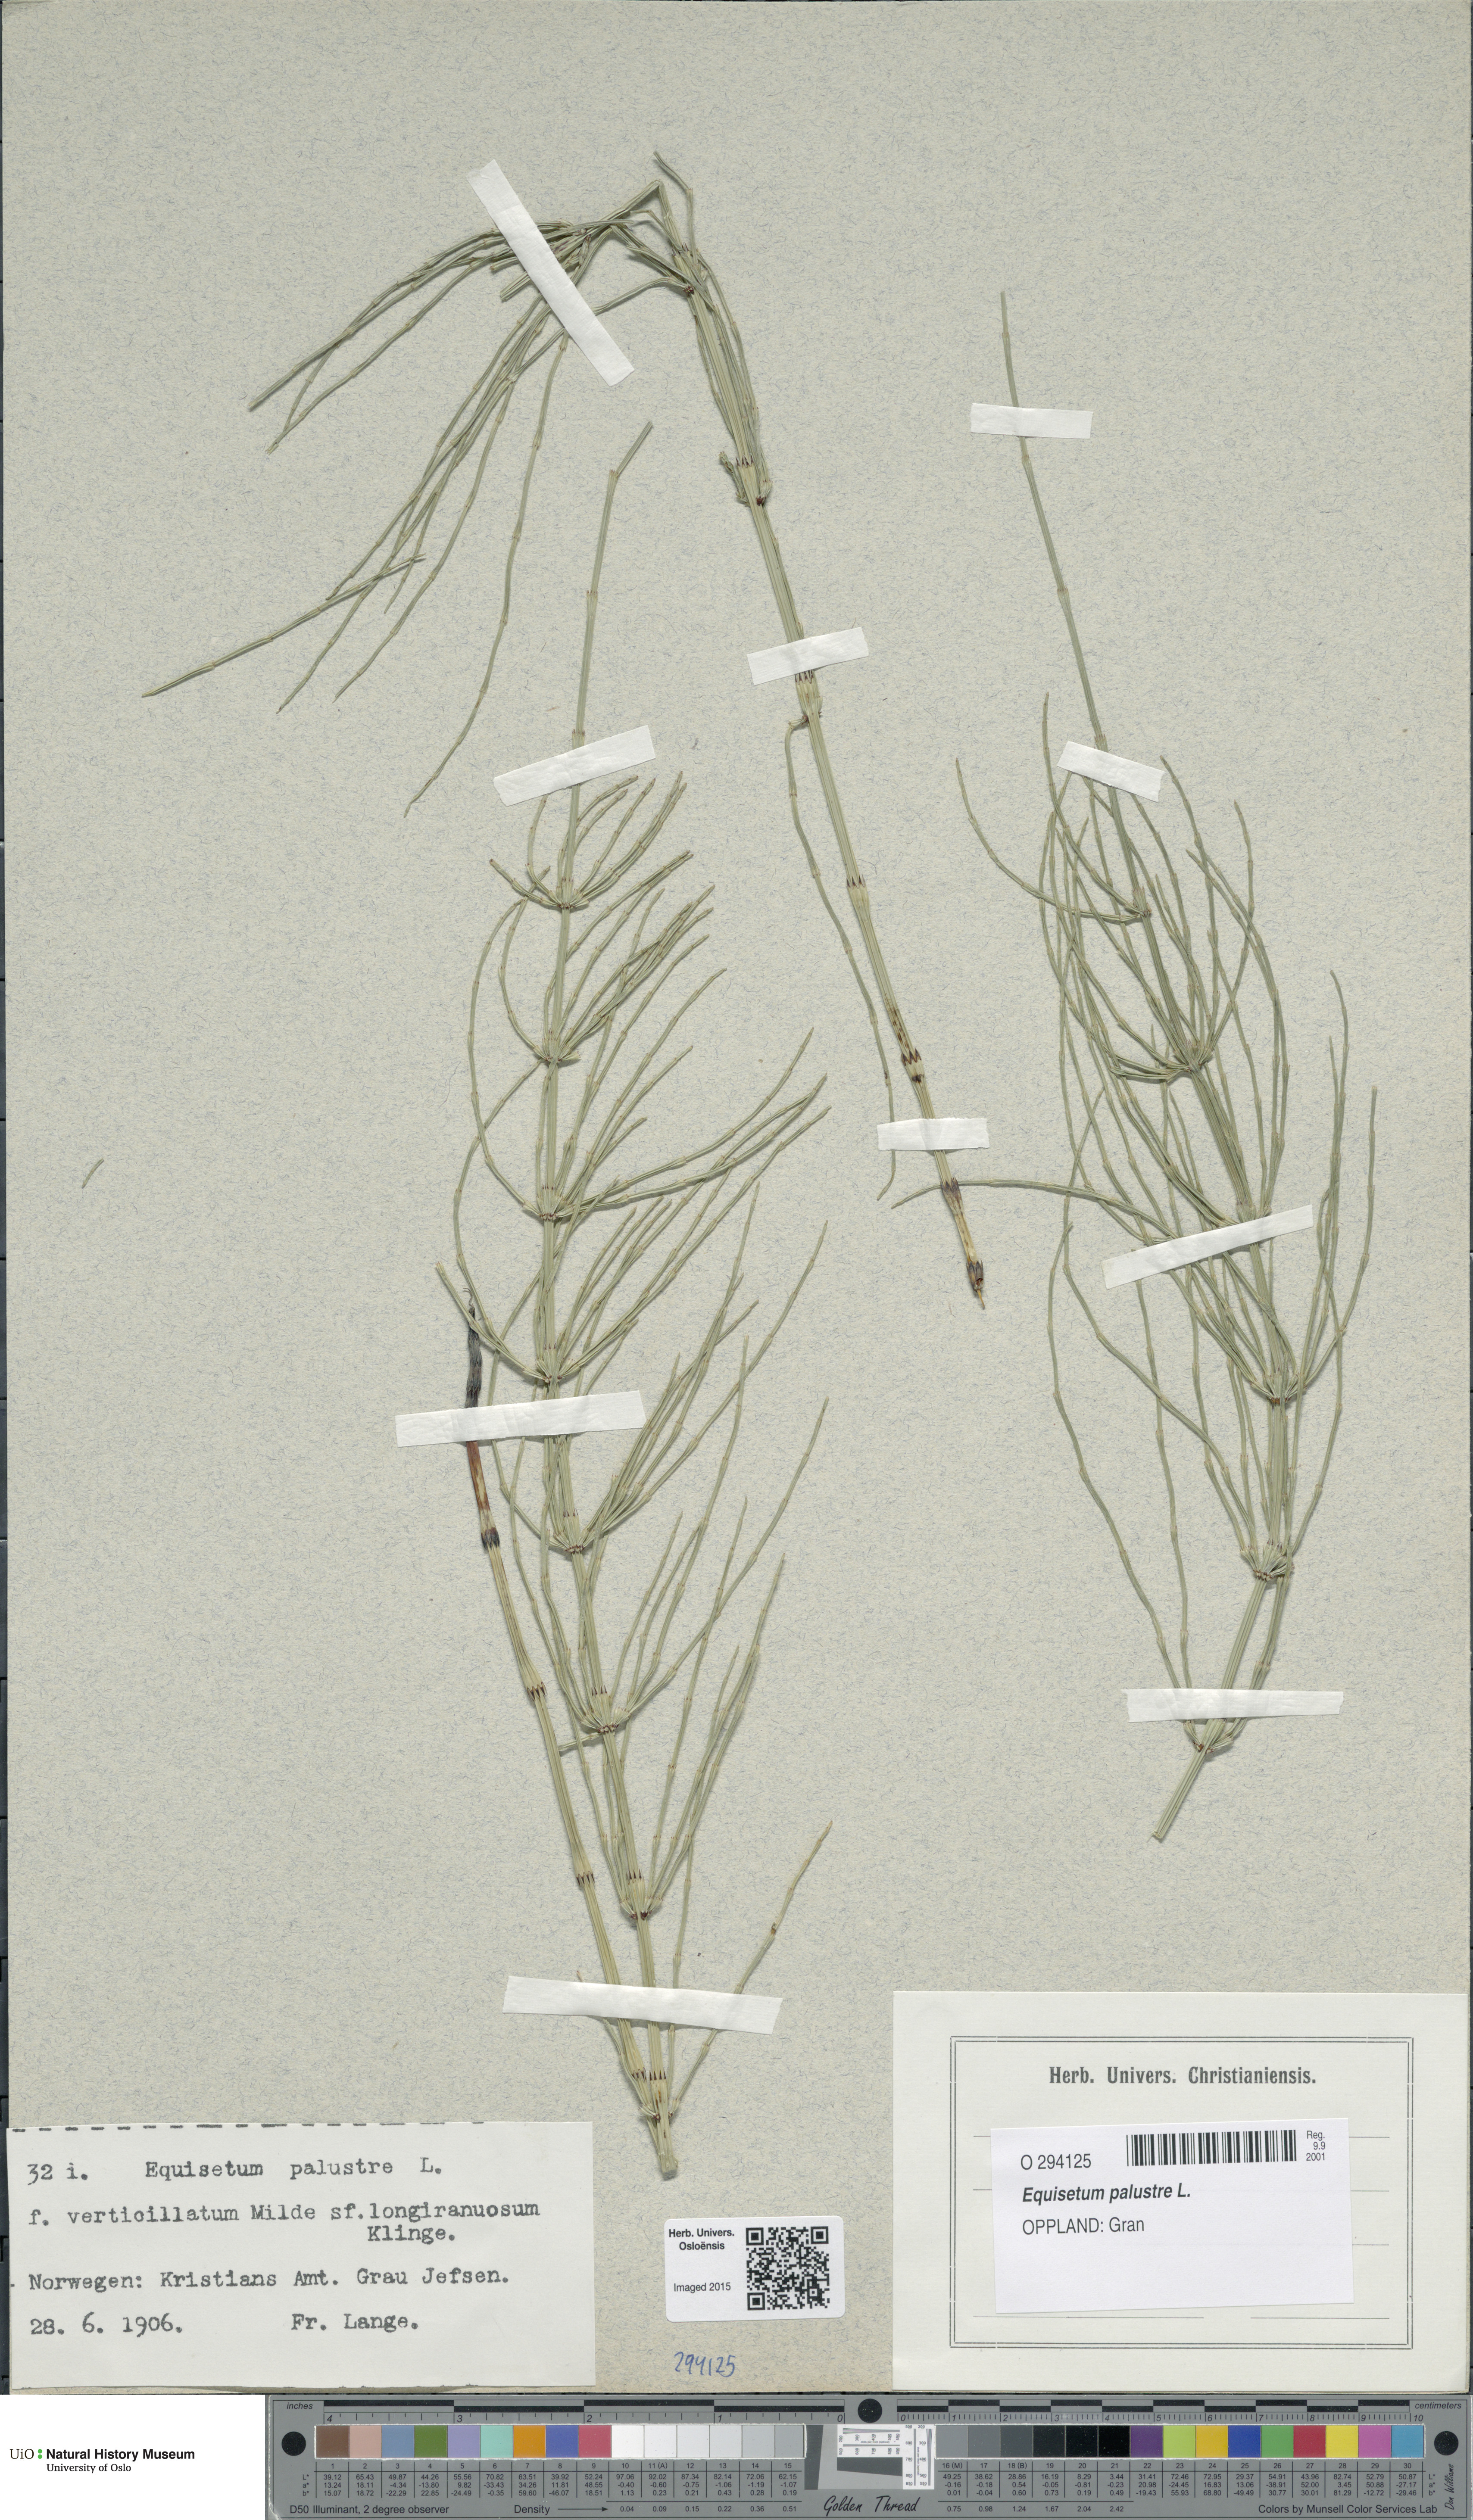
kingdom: Plantae
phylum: Tracheophyta
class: Polypodiopsida
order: Equisetales
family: Equisetaceae
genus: Equisetum
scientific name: Equisetum palustre
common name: Marsh horsetail
